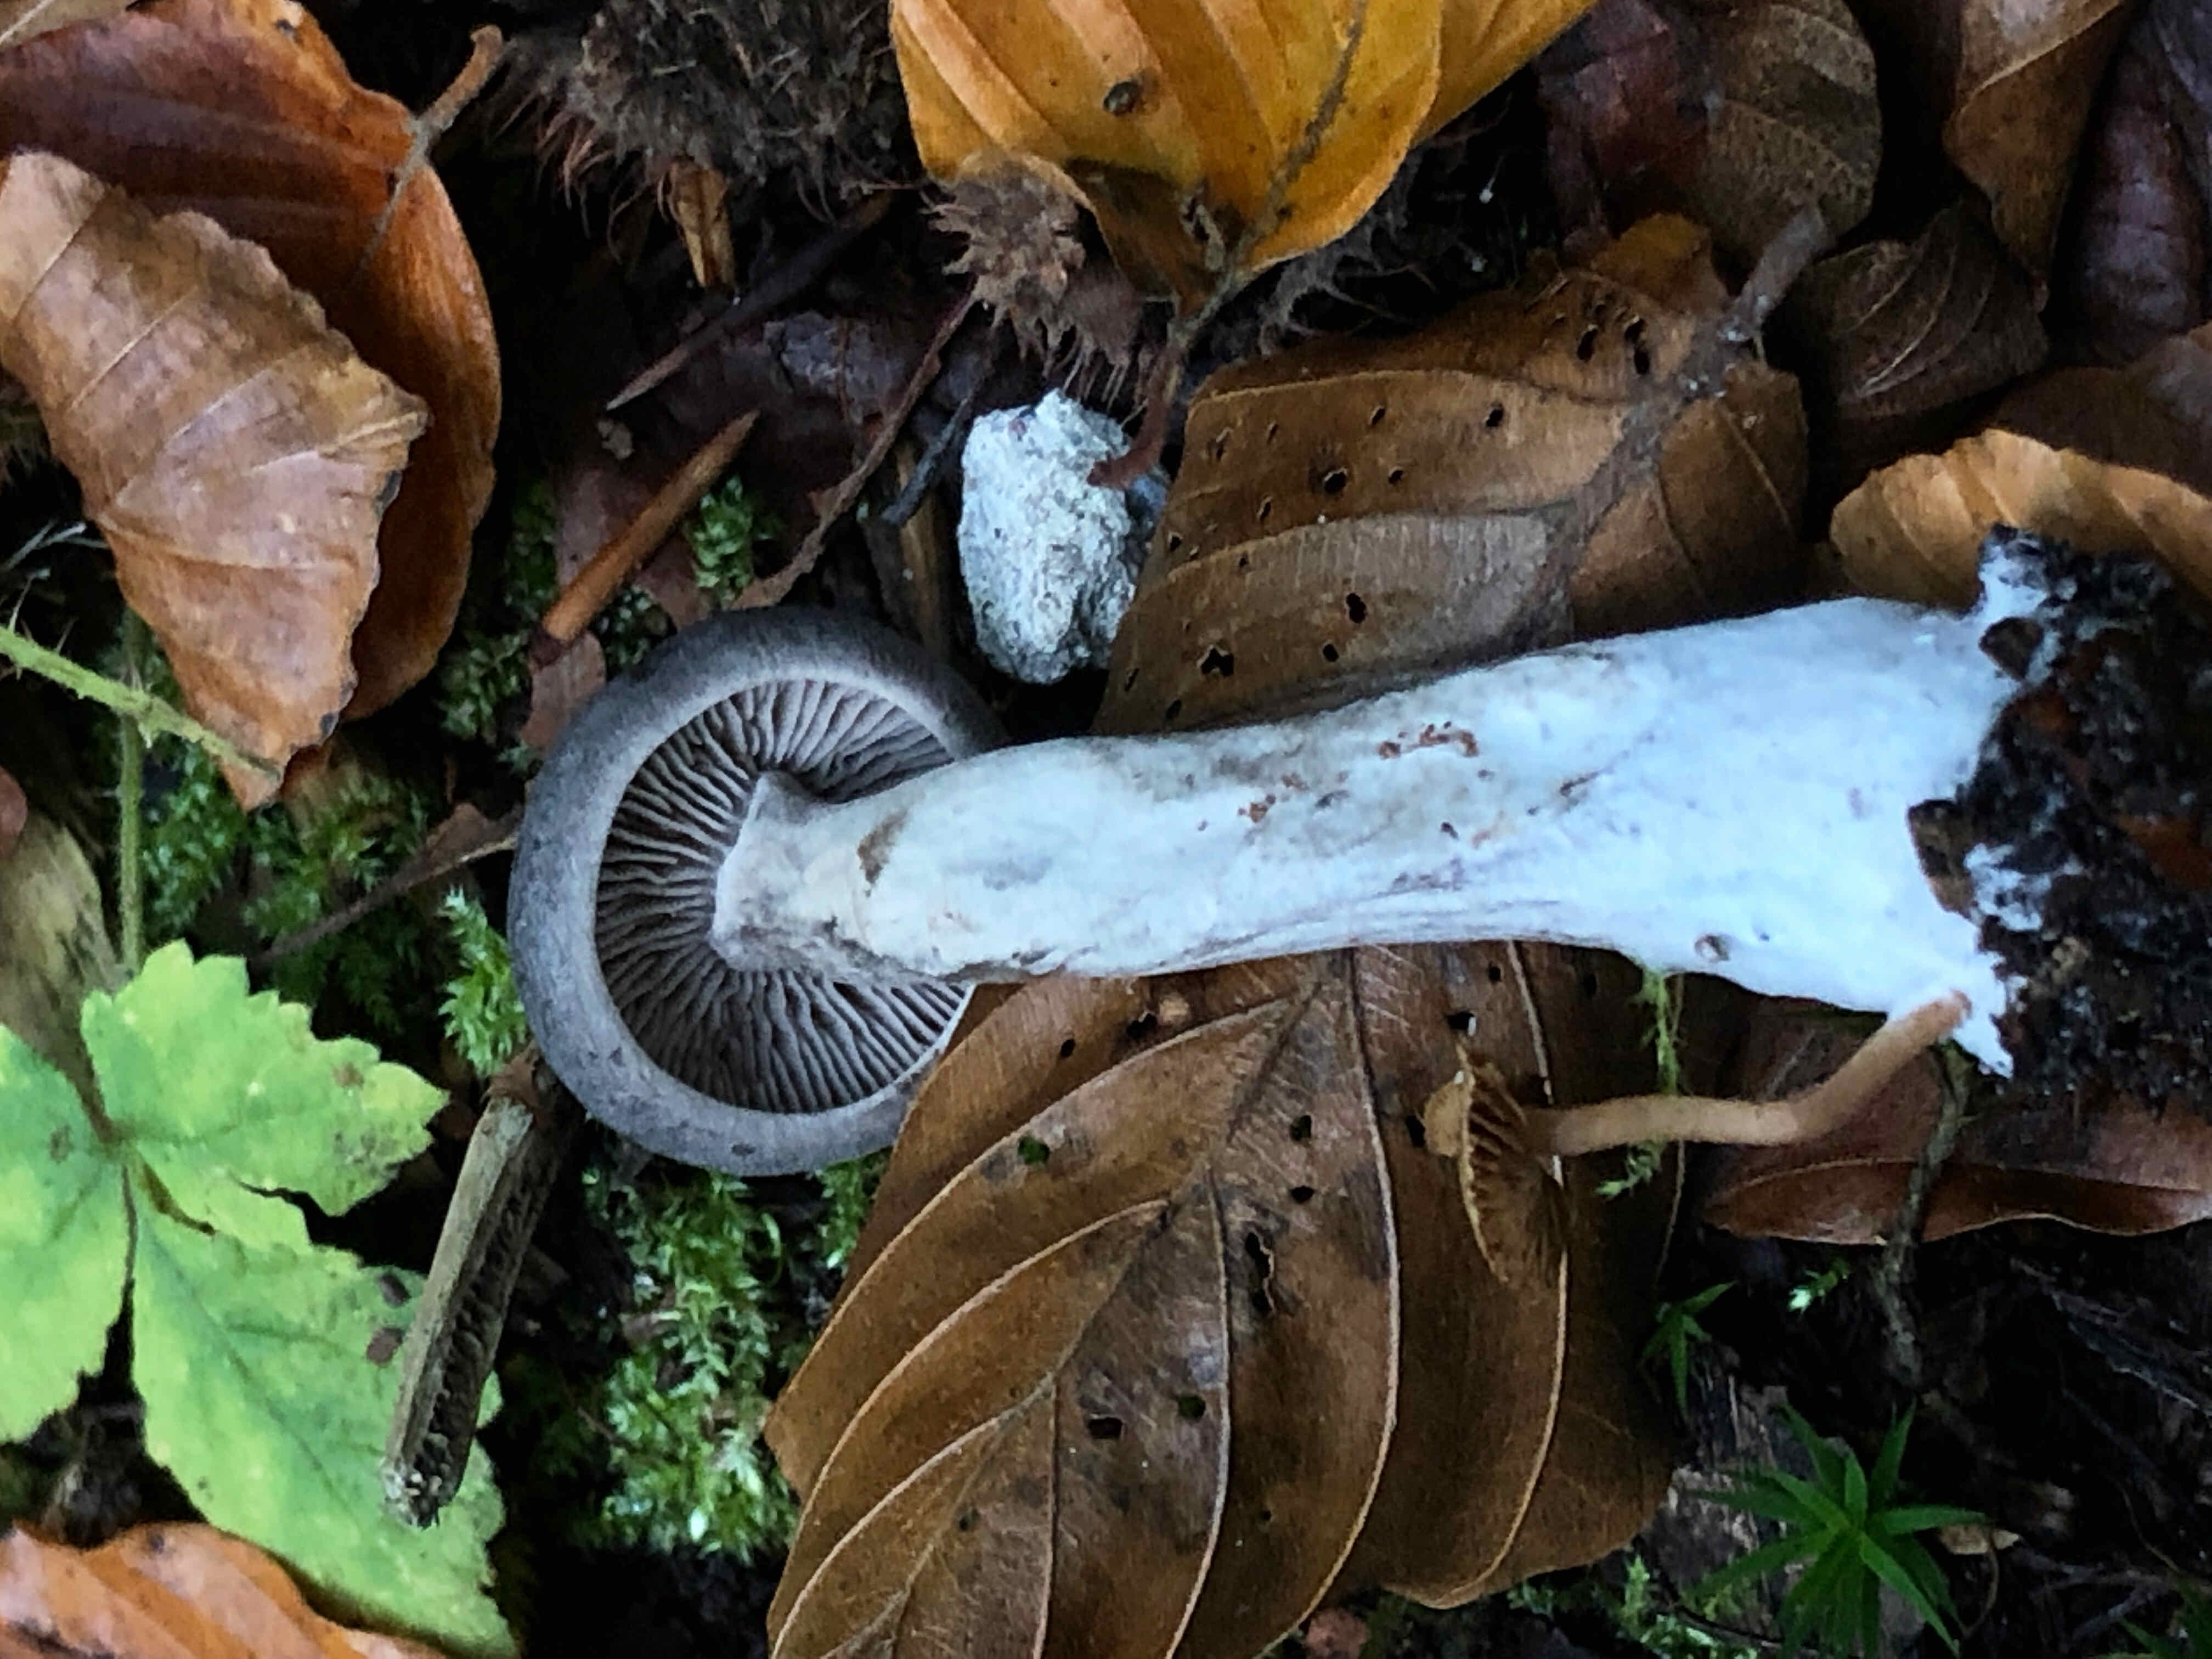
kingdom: Fungi
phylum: Basidiomycota
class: Agaricomycetes
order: Agaricales
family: Pseudoclitocybaceae
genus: Pseudoclitocybe
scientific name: Pseudoclitocybe cyathiformis
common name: almindelig bægertragthat
